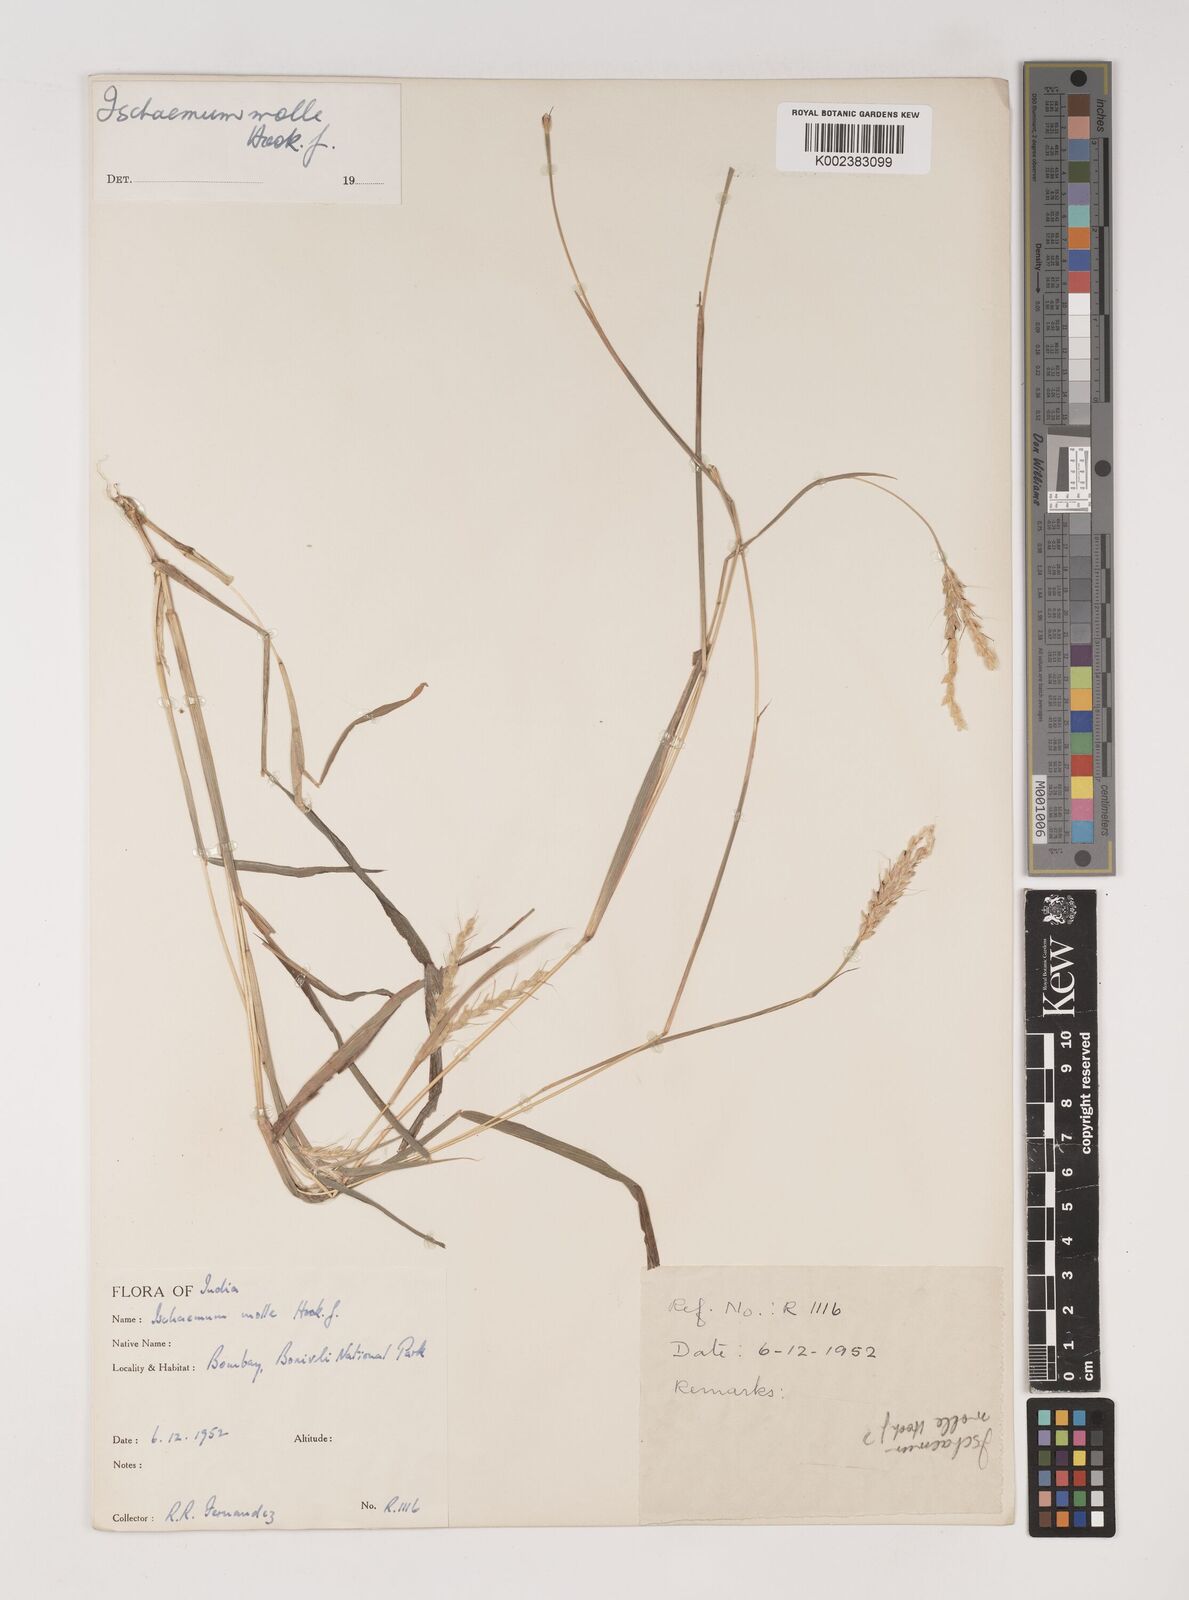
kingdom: Plantae
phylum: Tracheophyta
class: Liliopsida
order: Poales
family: Poaceae
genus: Ischaemum
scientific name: Ischaemum molle
